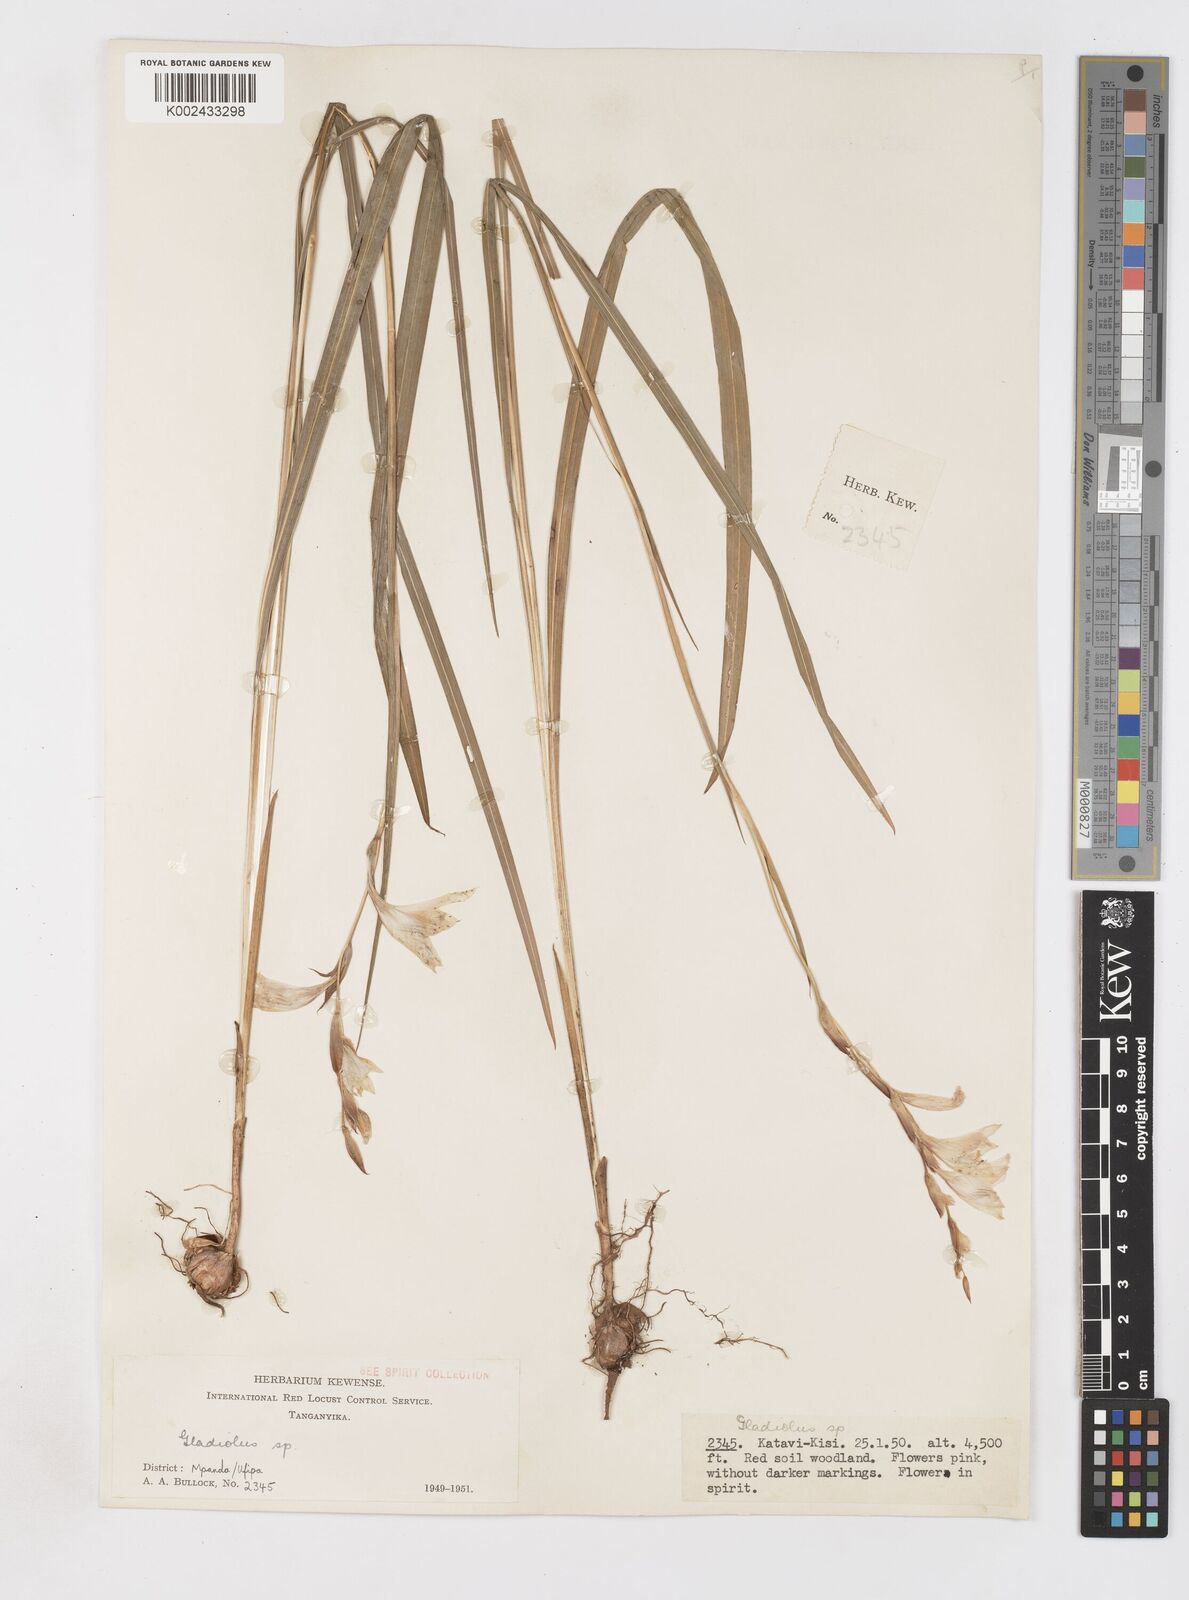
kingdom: Plantae
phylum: Tracheophyta
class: Liliopsida
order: Asparagales
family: Iridaceae
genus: Gladiolus
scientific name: Gladiolus erectiflorus
